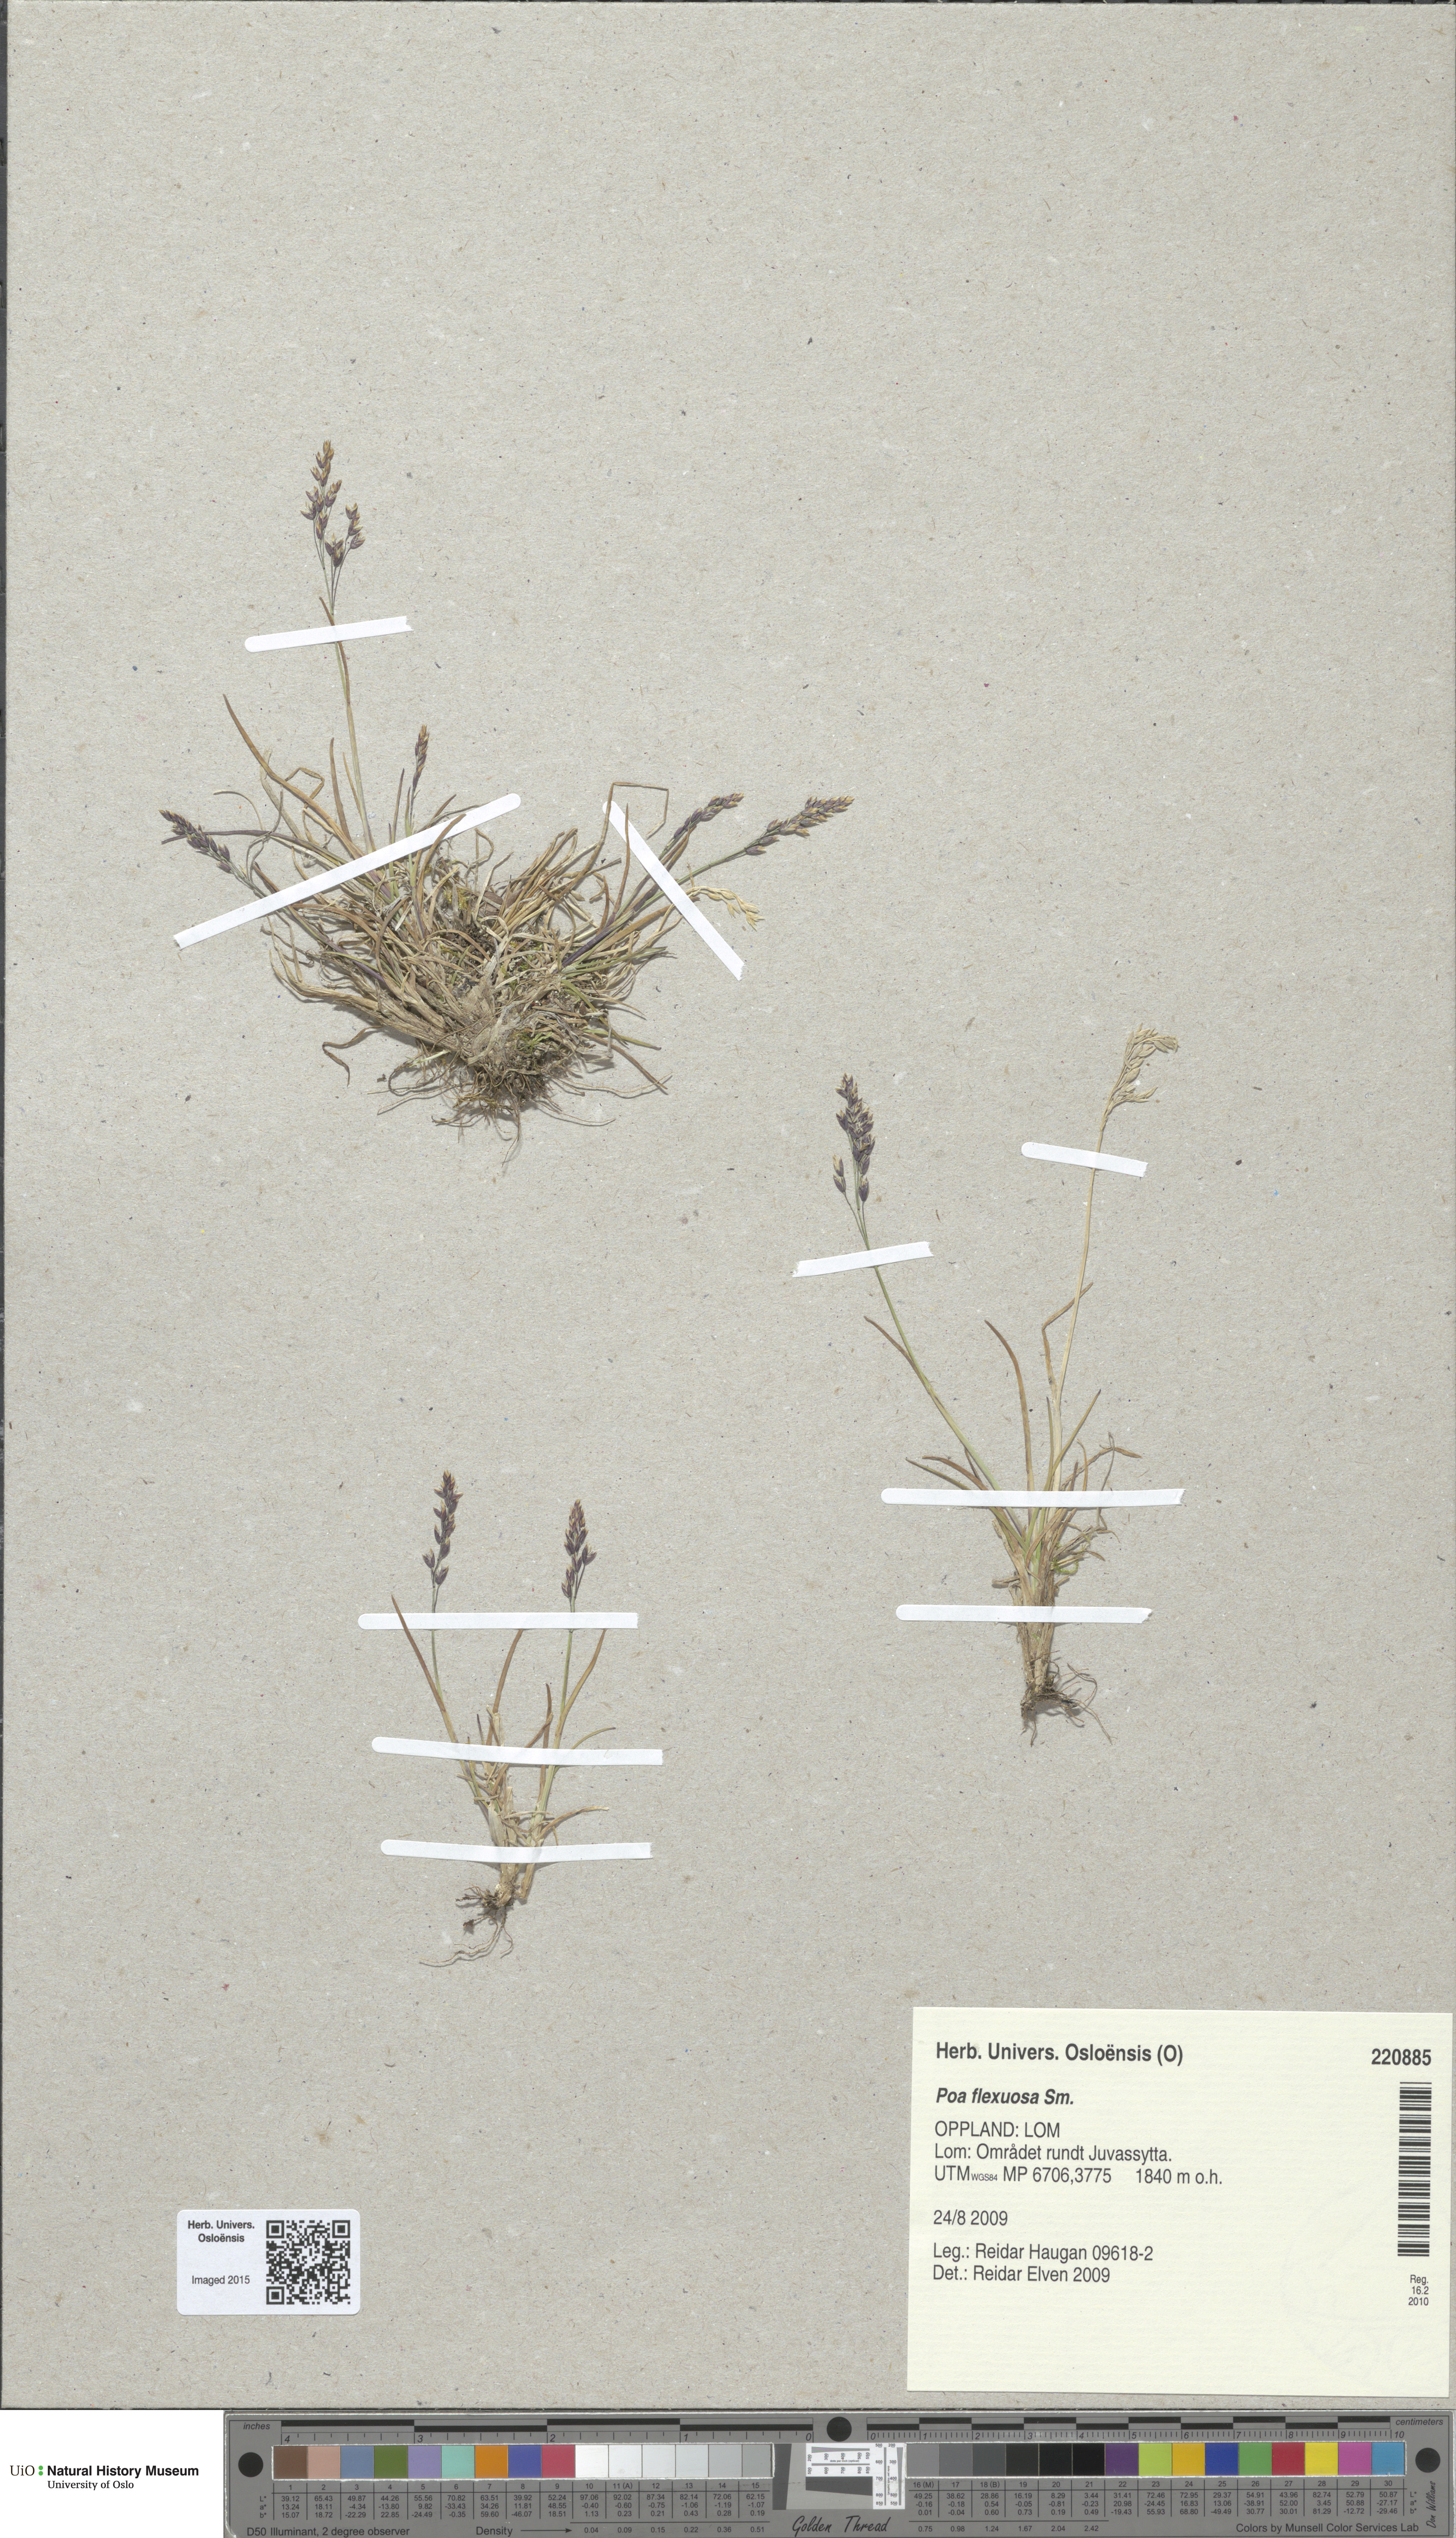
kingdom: Plantae
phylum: Tracheophyta
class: Liliopsida
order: Poales
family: Poaceae
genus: Poa
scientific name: Poa flexuosa
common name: Wavy meadow-grass
